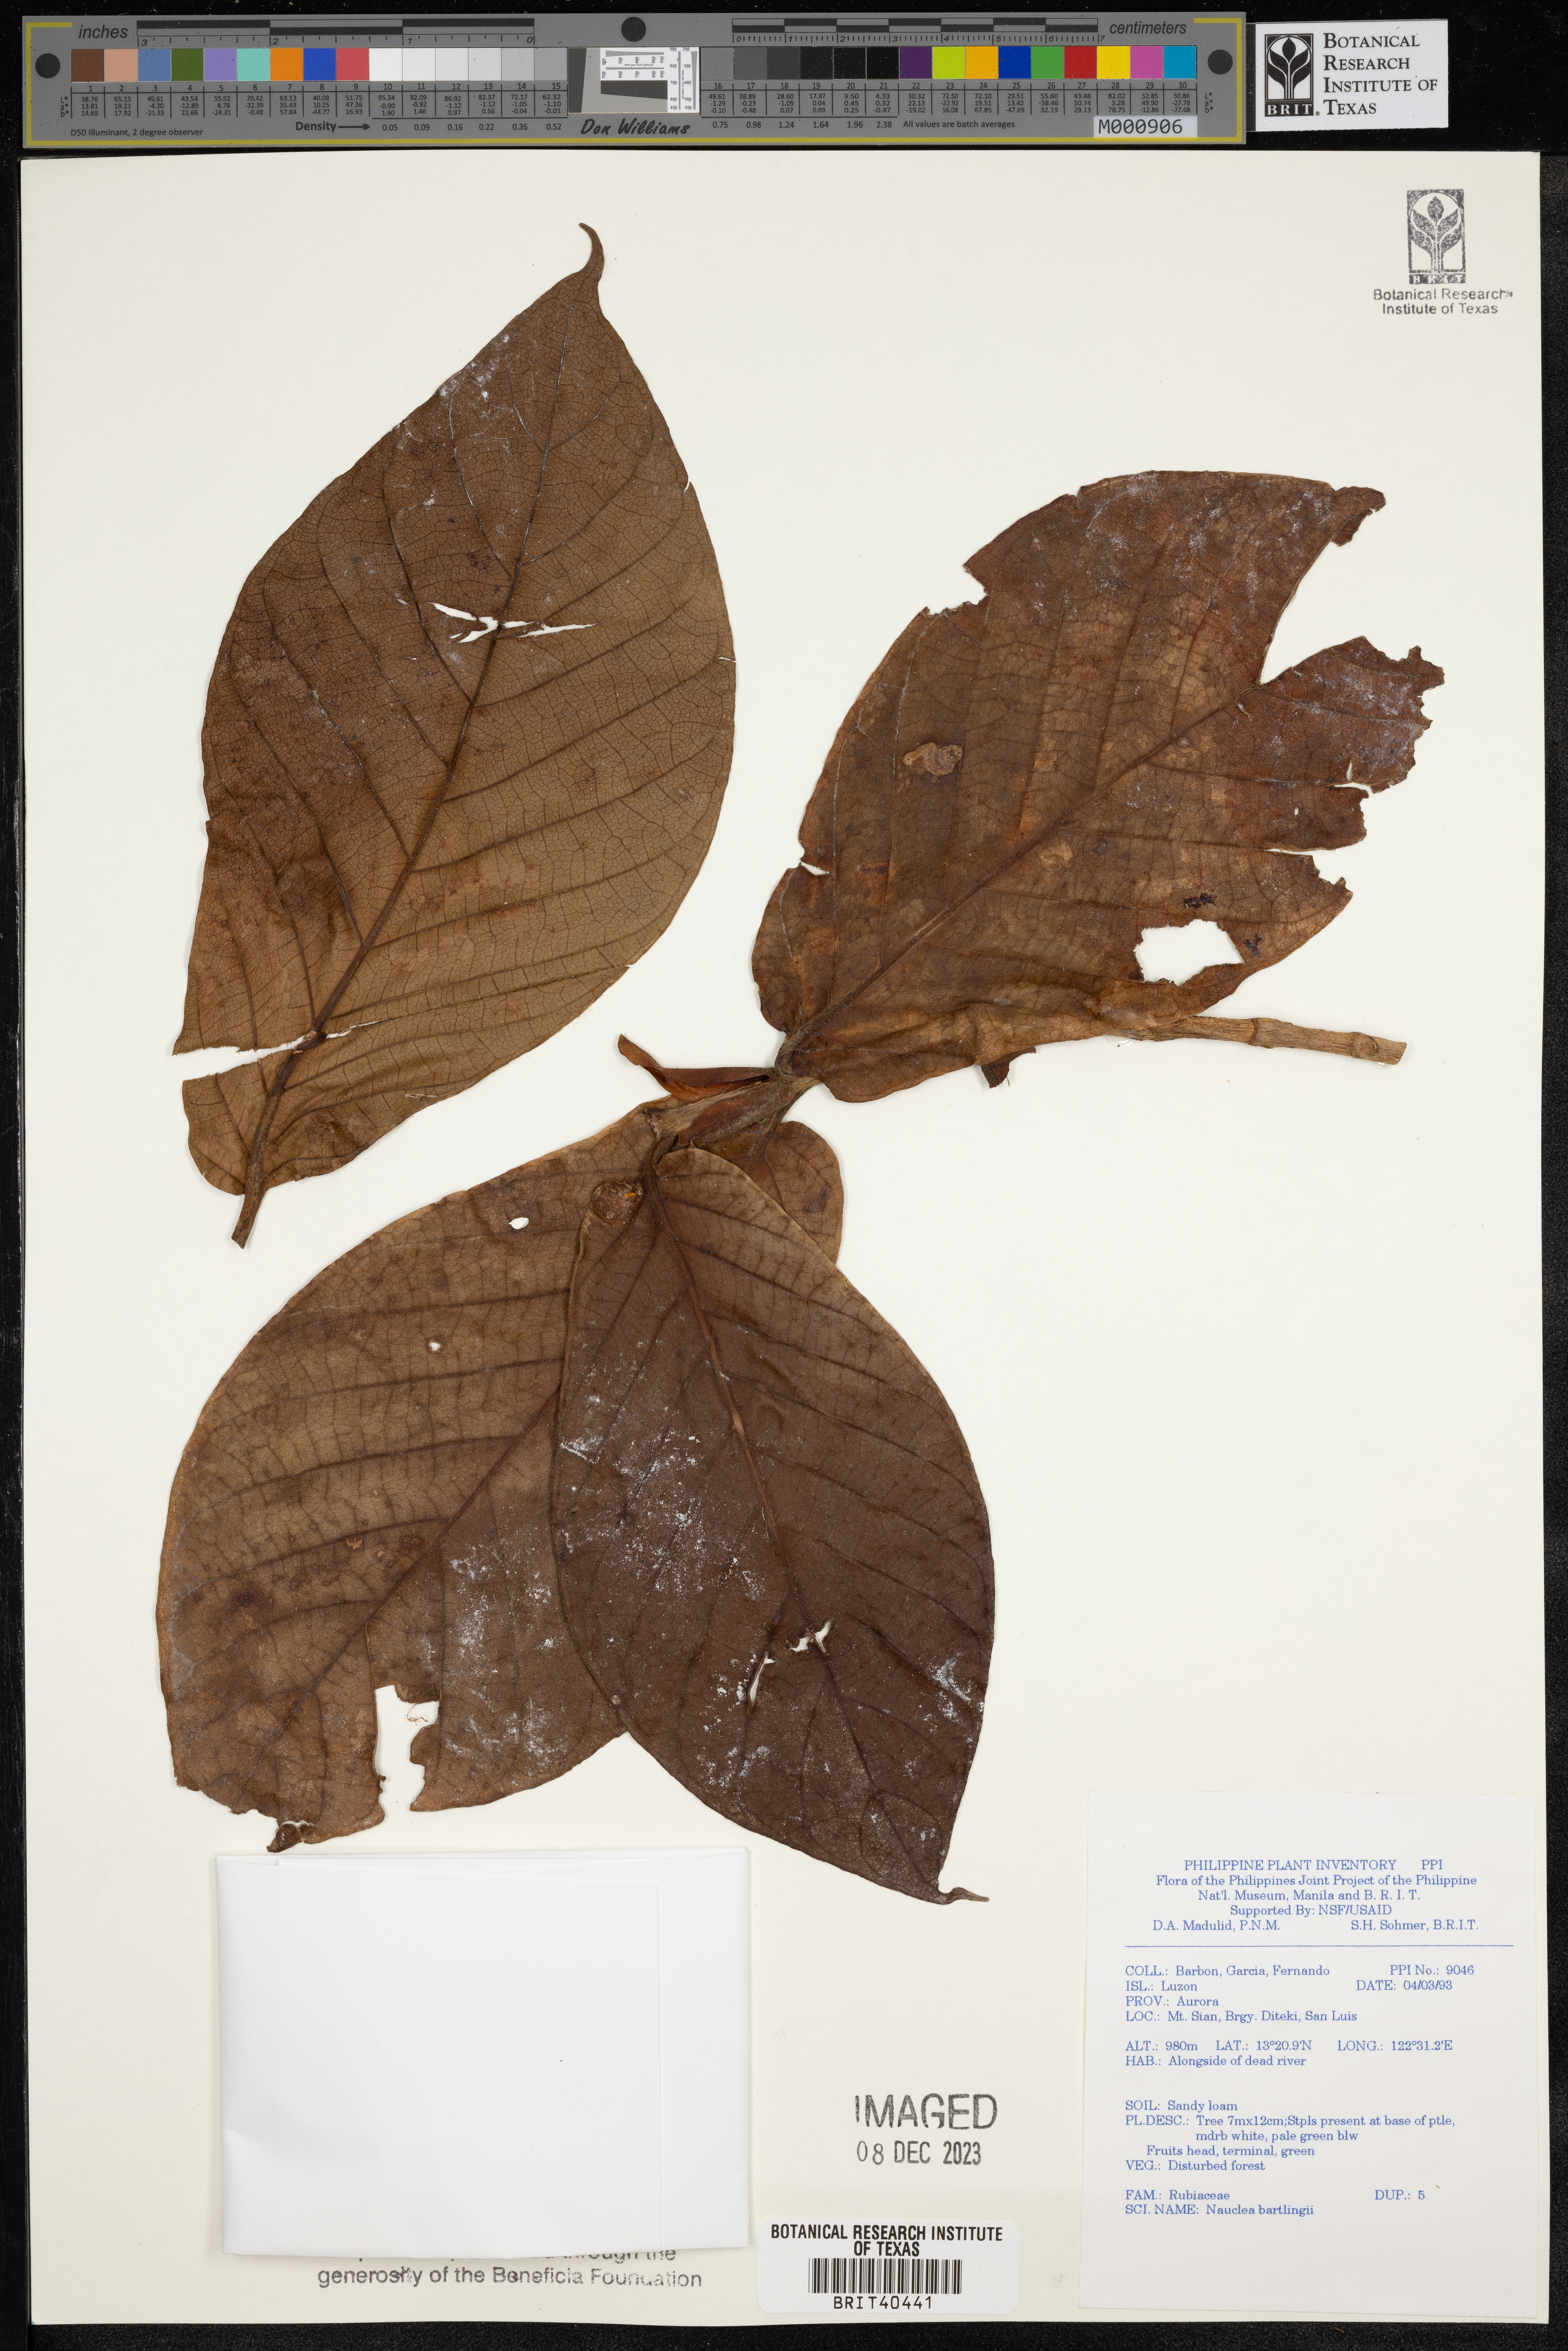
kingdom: Plantae
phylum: Tracheophyta
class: Magnoliopsida
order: Gentianales
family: Rubiaceae
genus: Neonauclea
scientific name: Neonauclea bartlingii
